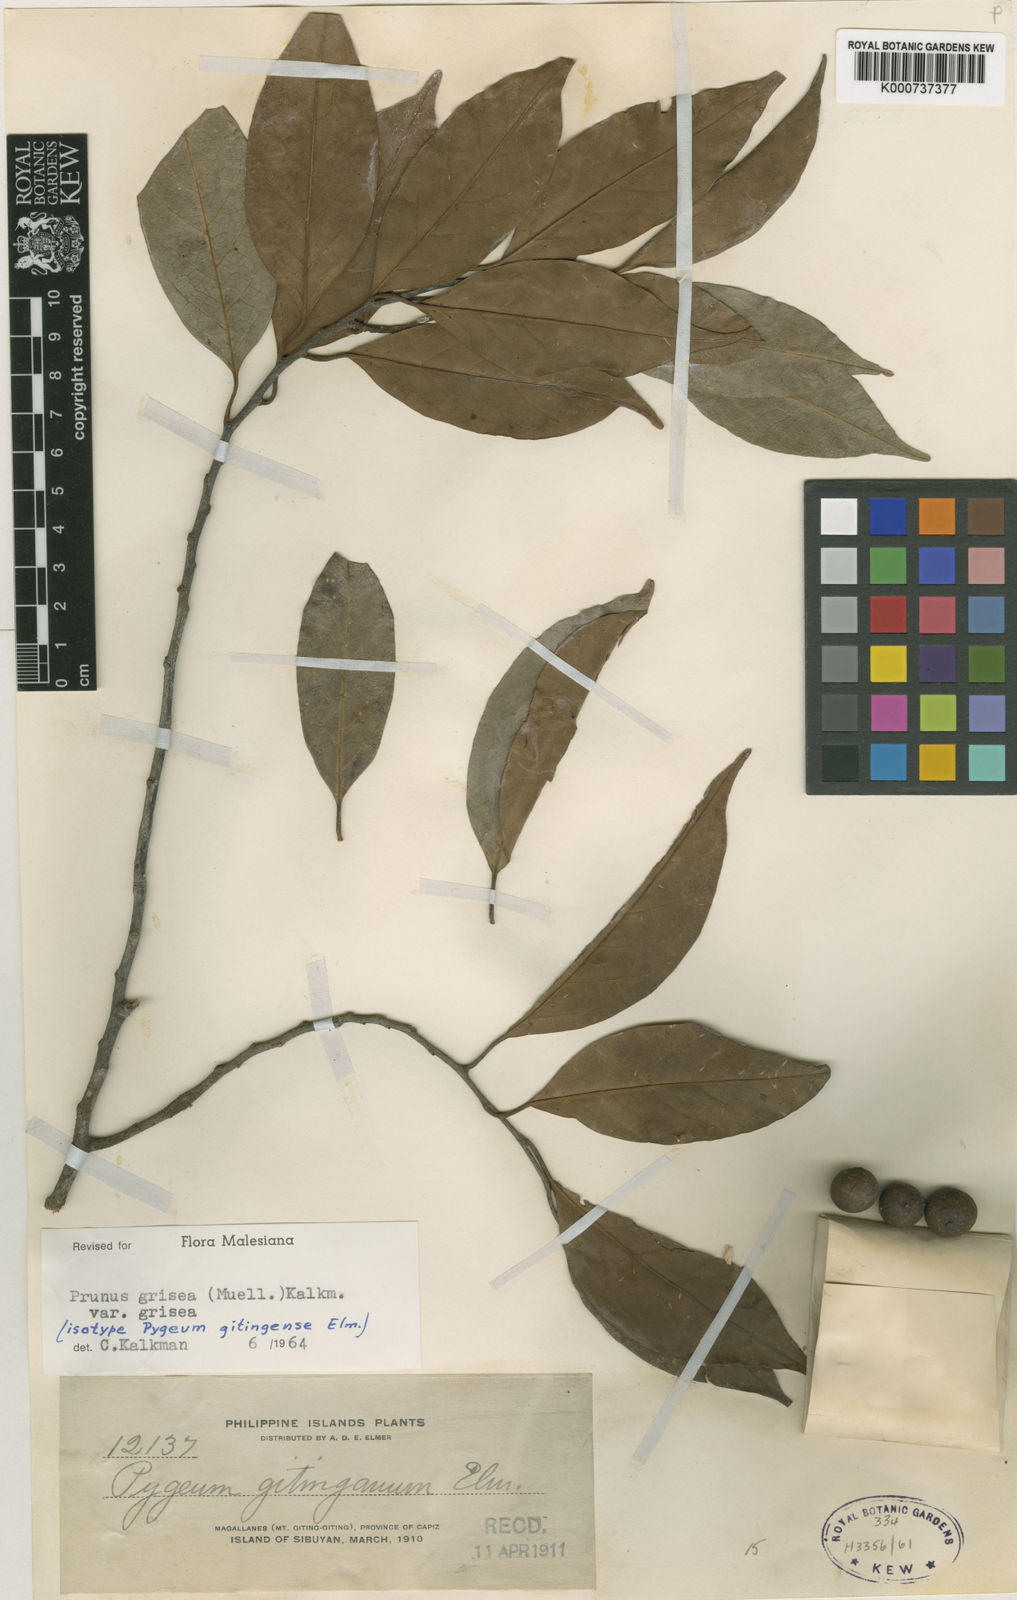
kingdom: Plantae
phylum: Tracheophyta
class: Magnoliopsida
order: Rosales
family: Rosaceae
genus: Prunus
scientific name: Prunus
